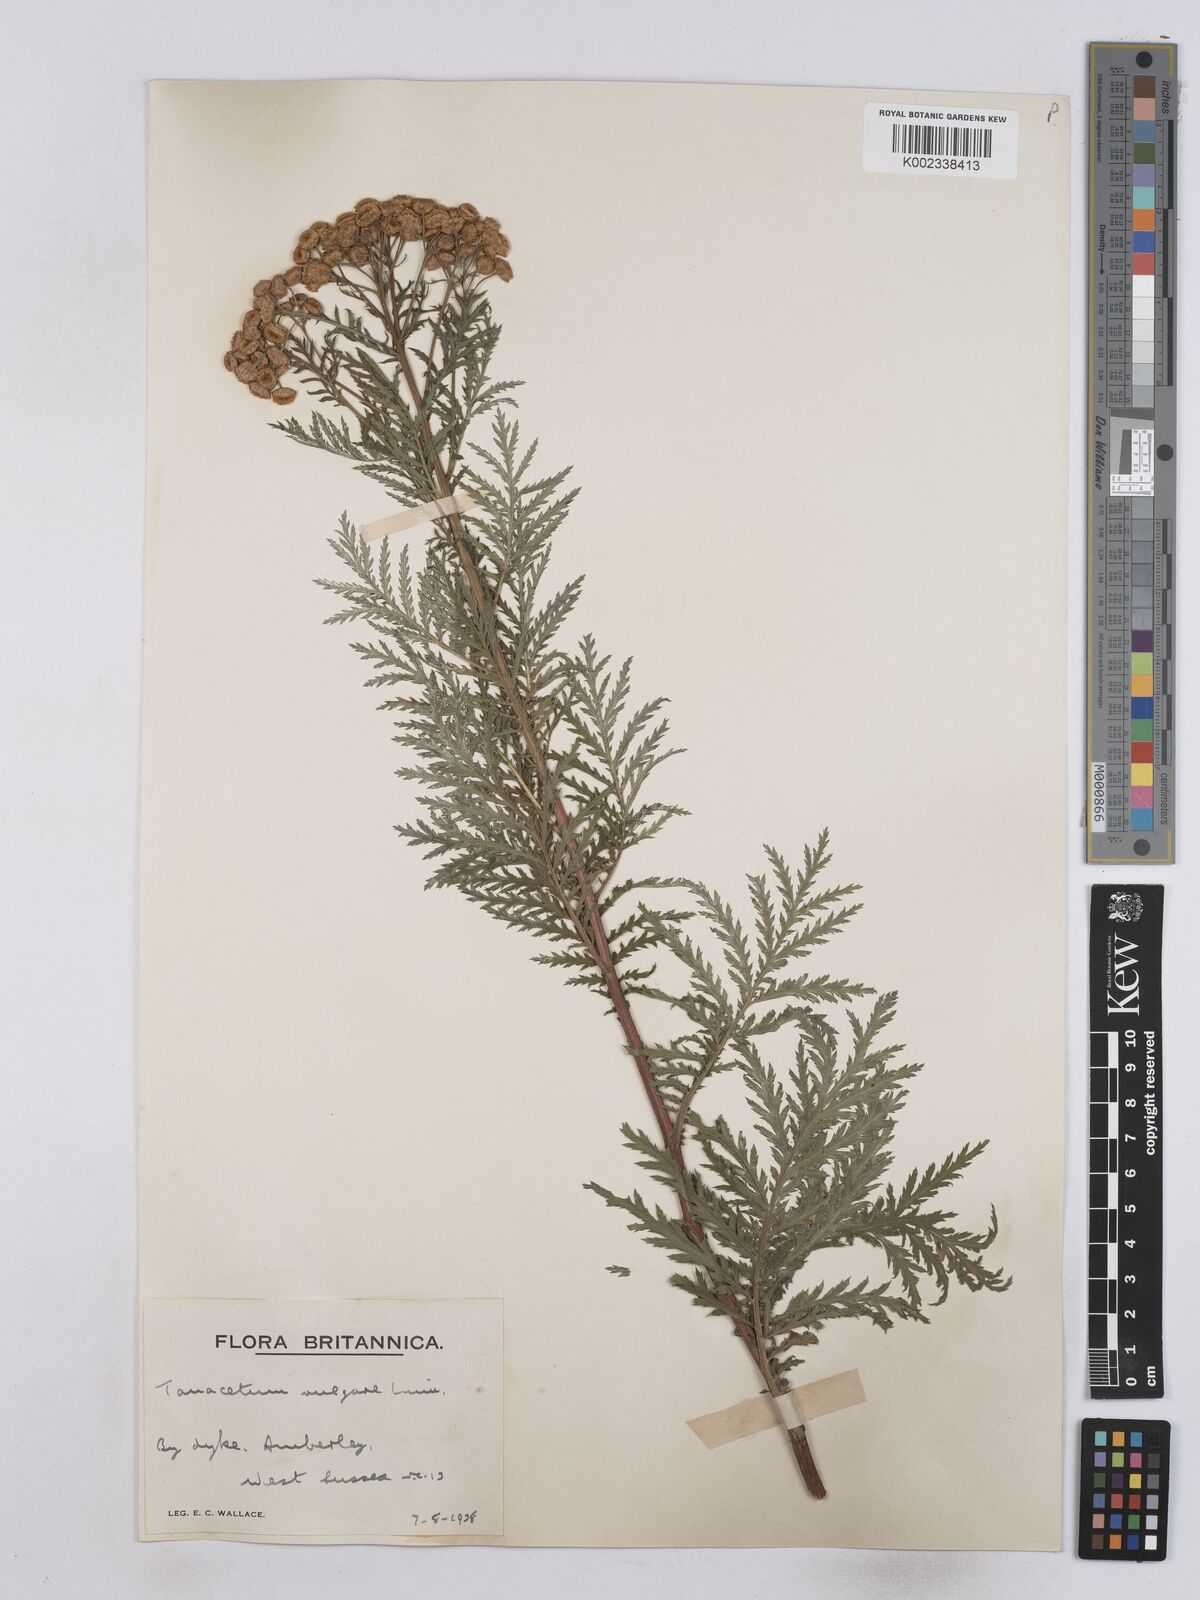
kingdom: Plantae
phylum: Tracheophyta
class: Magnoliopsida
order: Asterales
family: Asteraceae
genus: Tanacetum
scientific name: Tanacetum vulgare
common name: Common tansy
